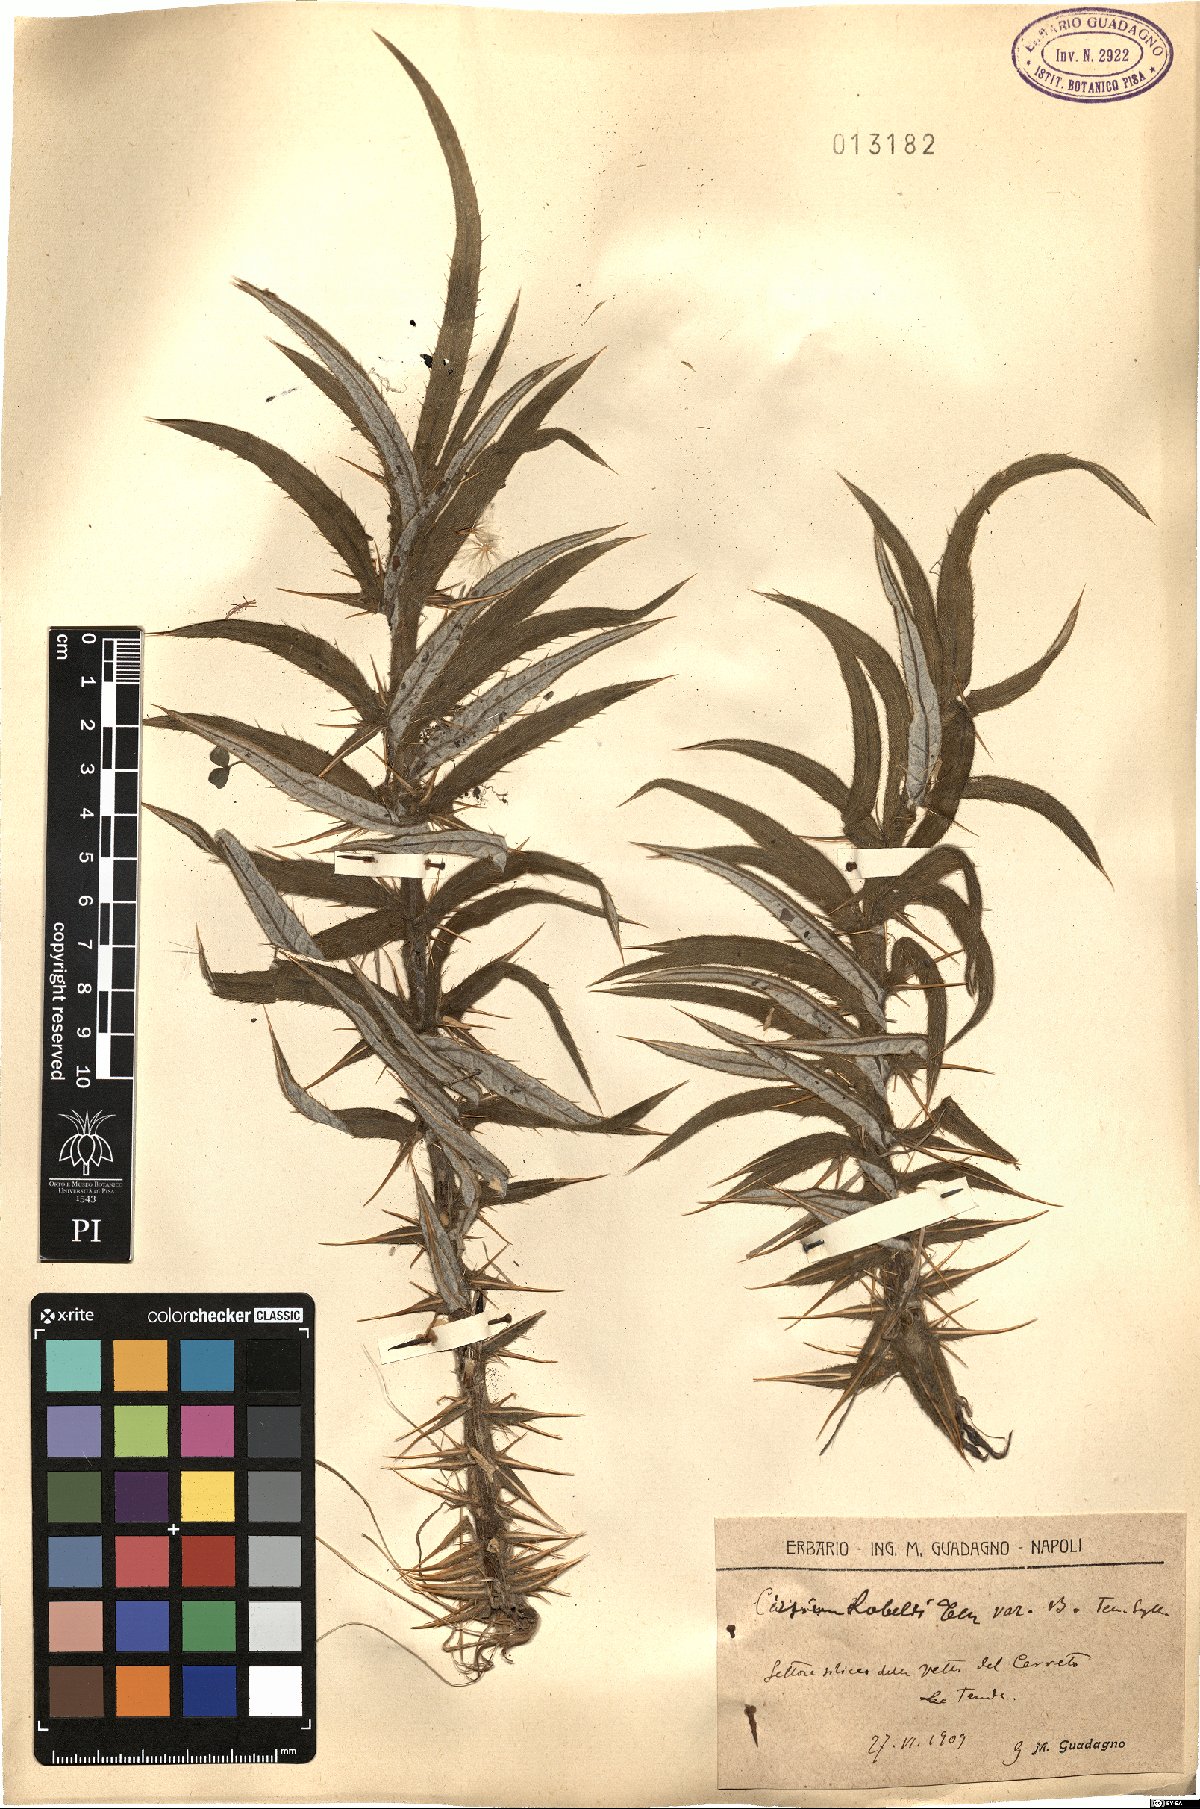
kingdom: Plantae
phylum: Tracheophyta
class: Magnoliopsida
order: Asterales
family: Asteraceae
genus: Lophiolepis
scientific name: Lophiolepis lobelii
